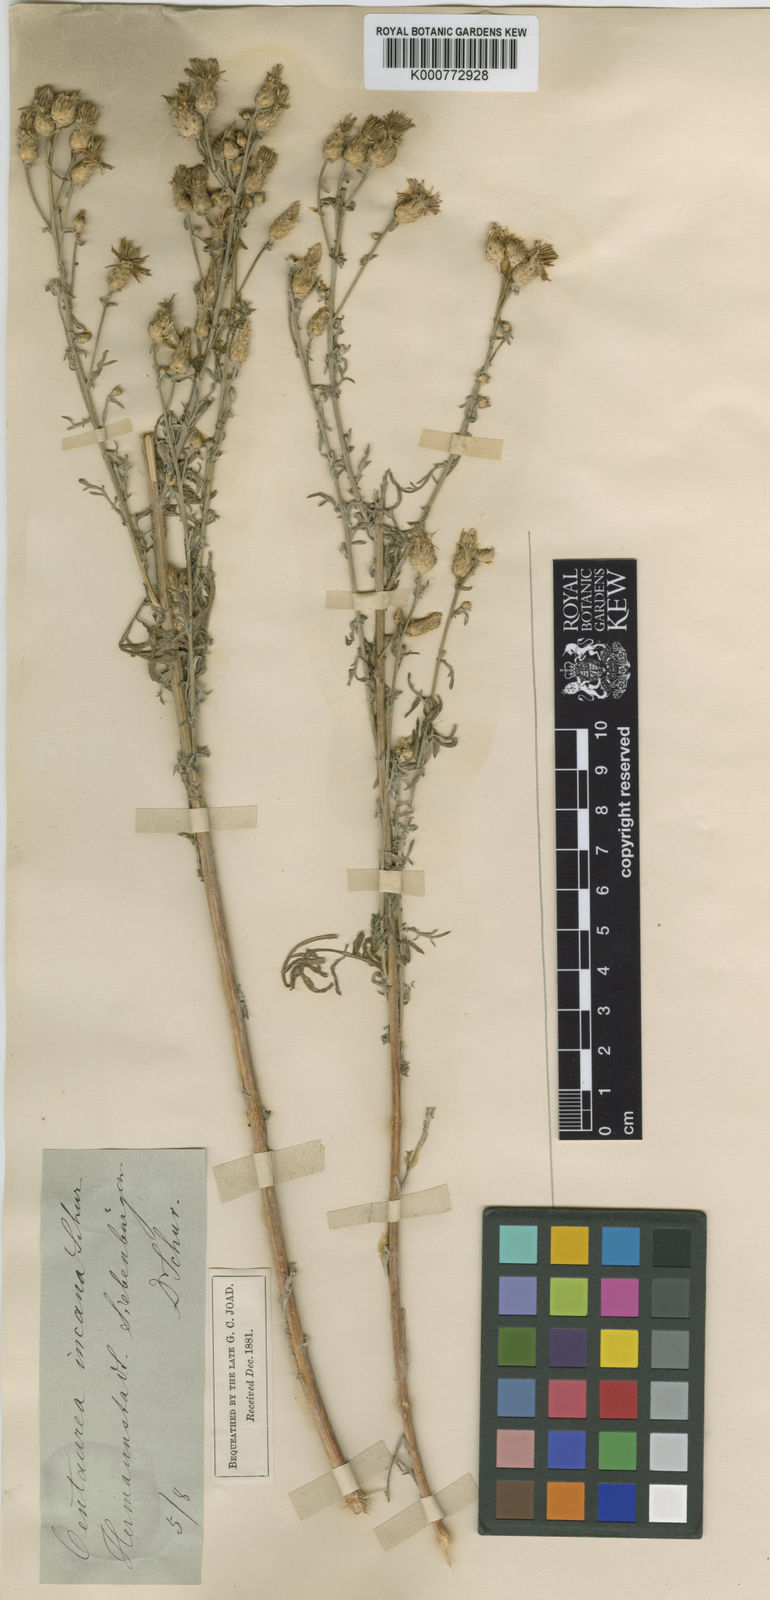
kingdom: Plantae
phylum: Tracheophyta
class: Magnoliopsida
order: Asterales
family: Asteraceae
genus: Centaurea
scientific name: Centaurea diffusa
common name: Diffuse knapweed
